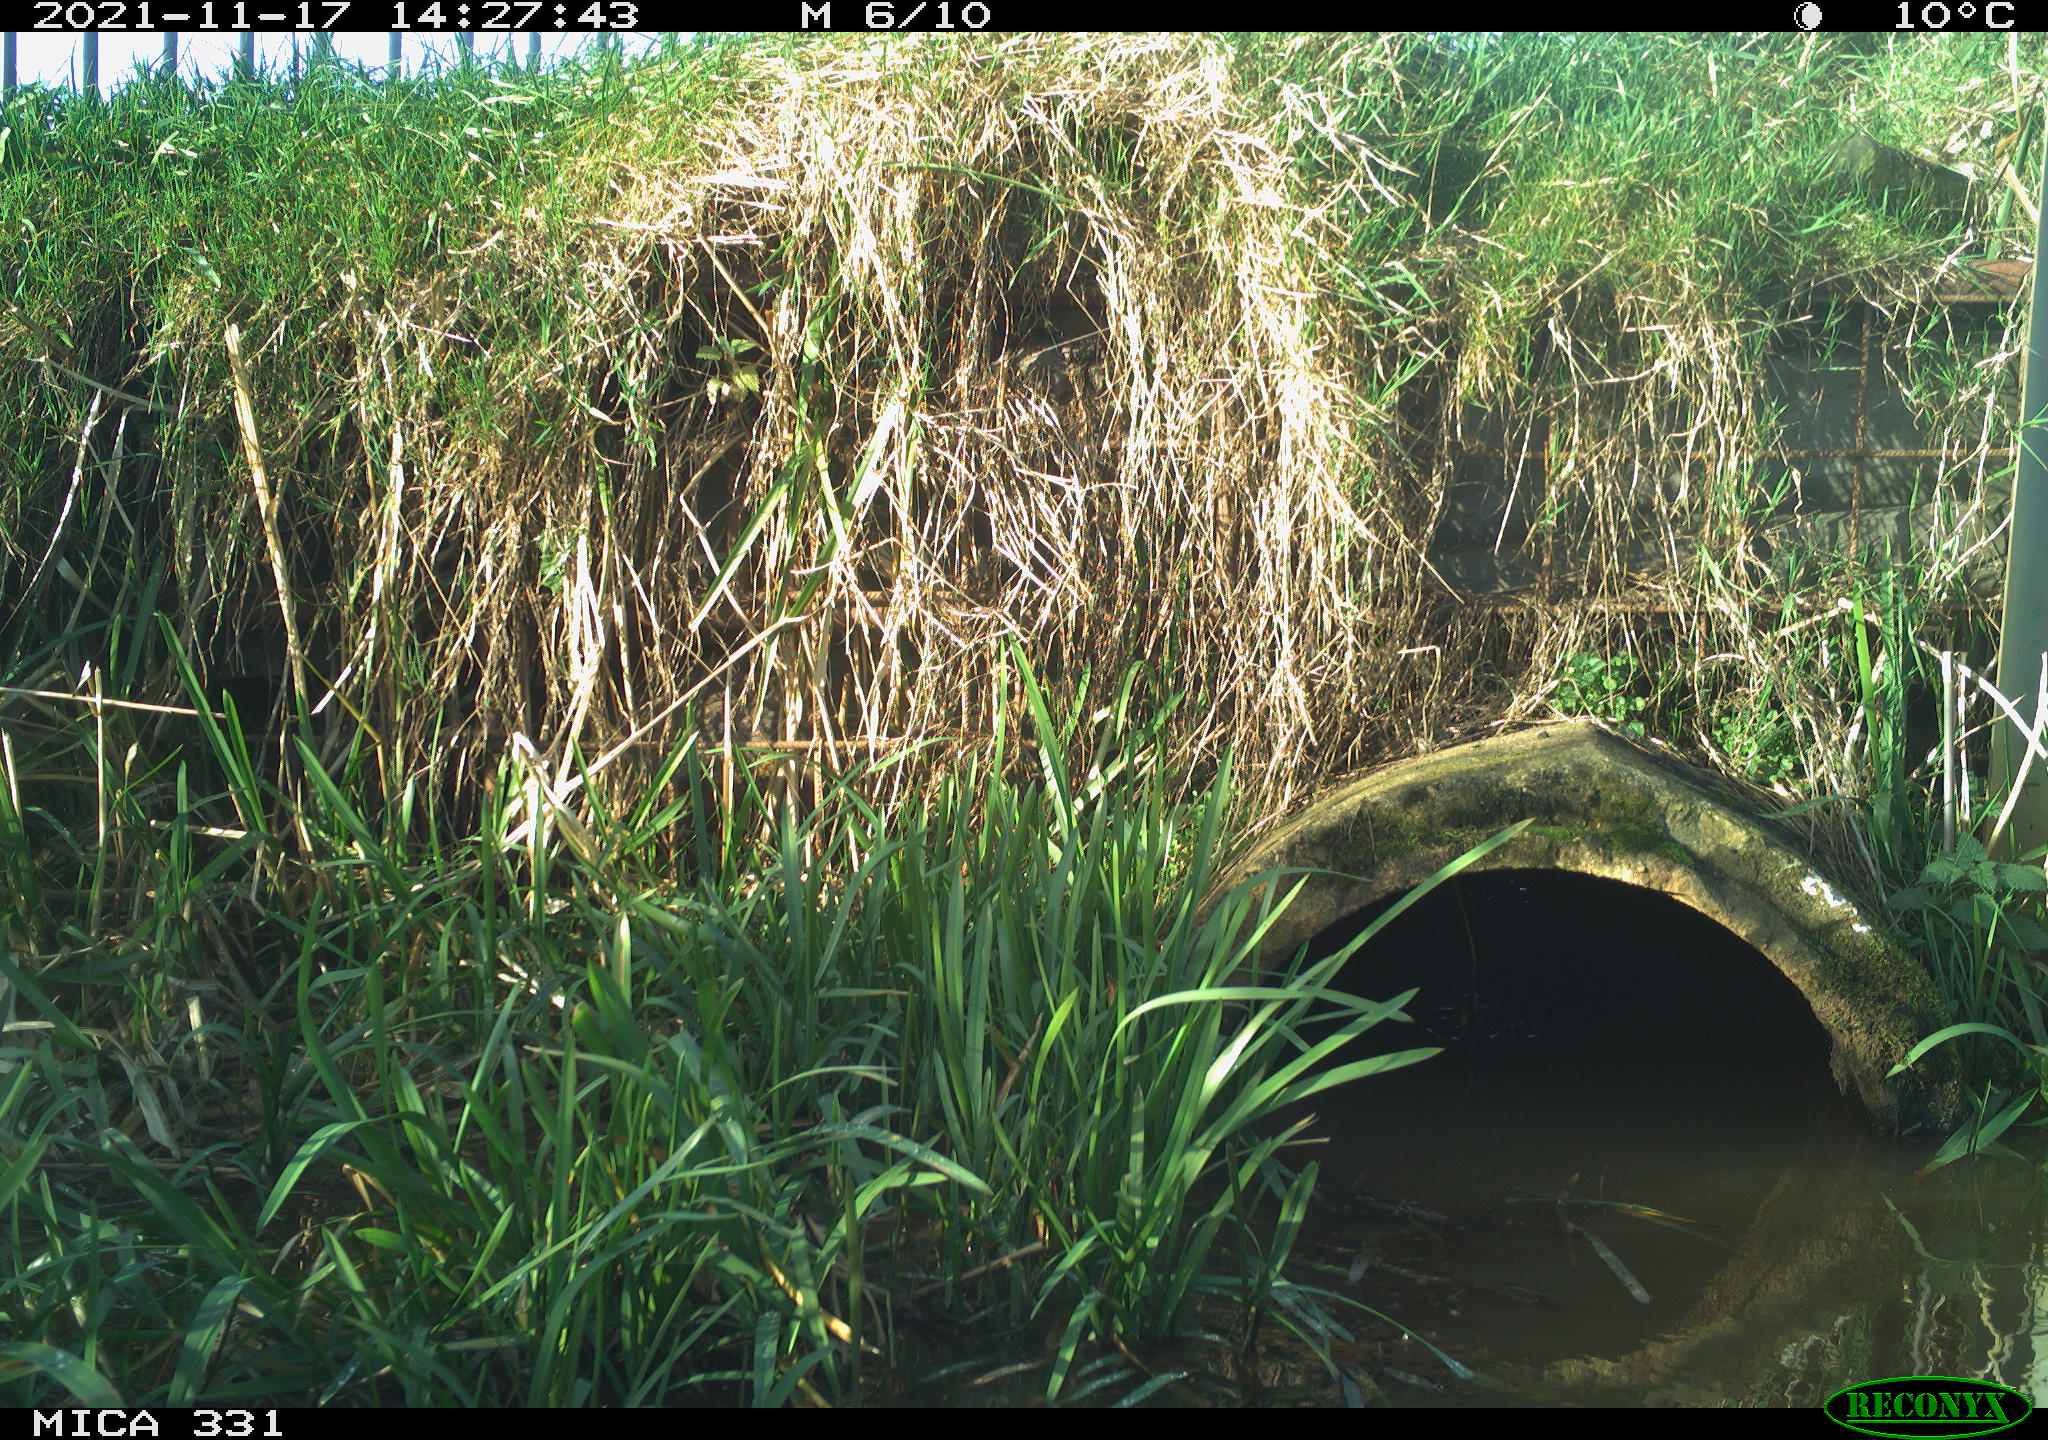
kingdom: Animalia
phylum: Chordata
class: Aves
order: Gruiformes
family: Rallidae
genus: Gallinula
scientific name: Gallinula chloropus
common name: Common moorhen
